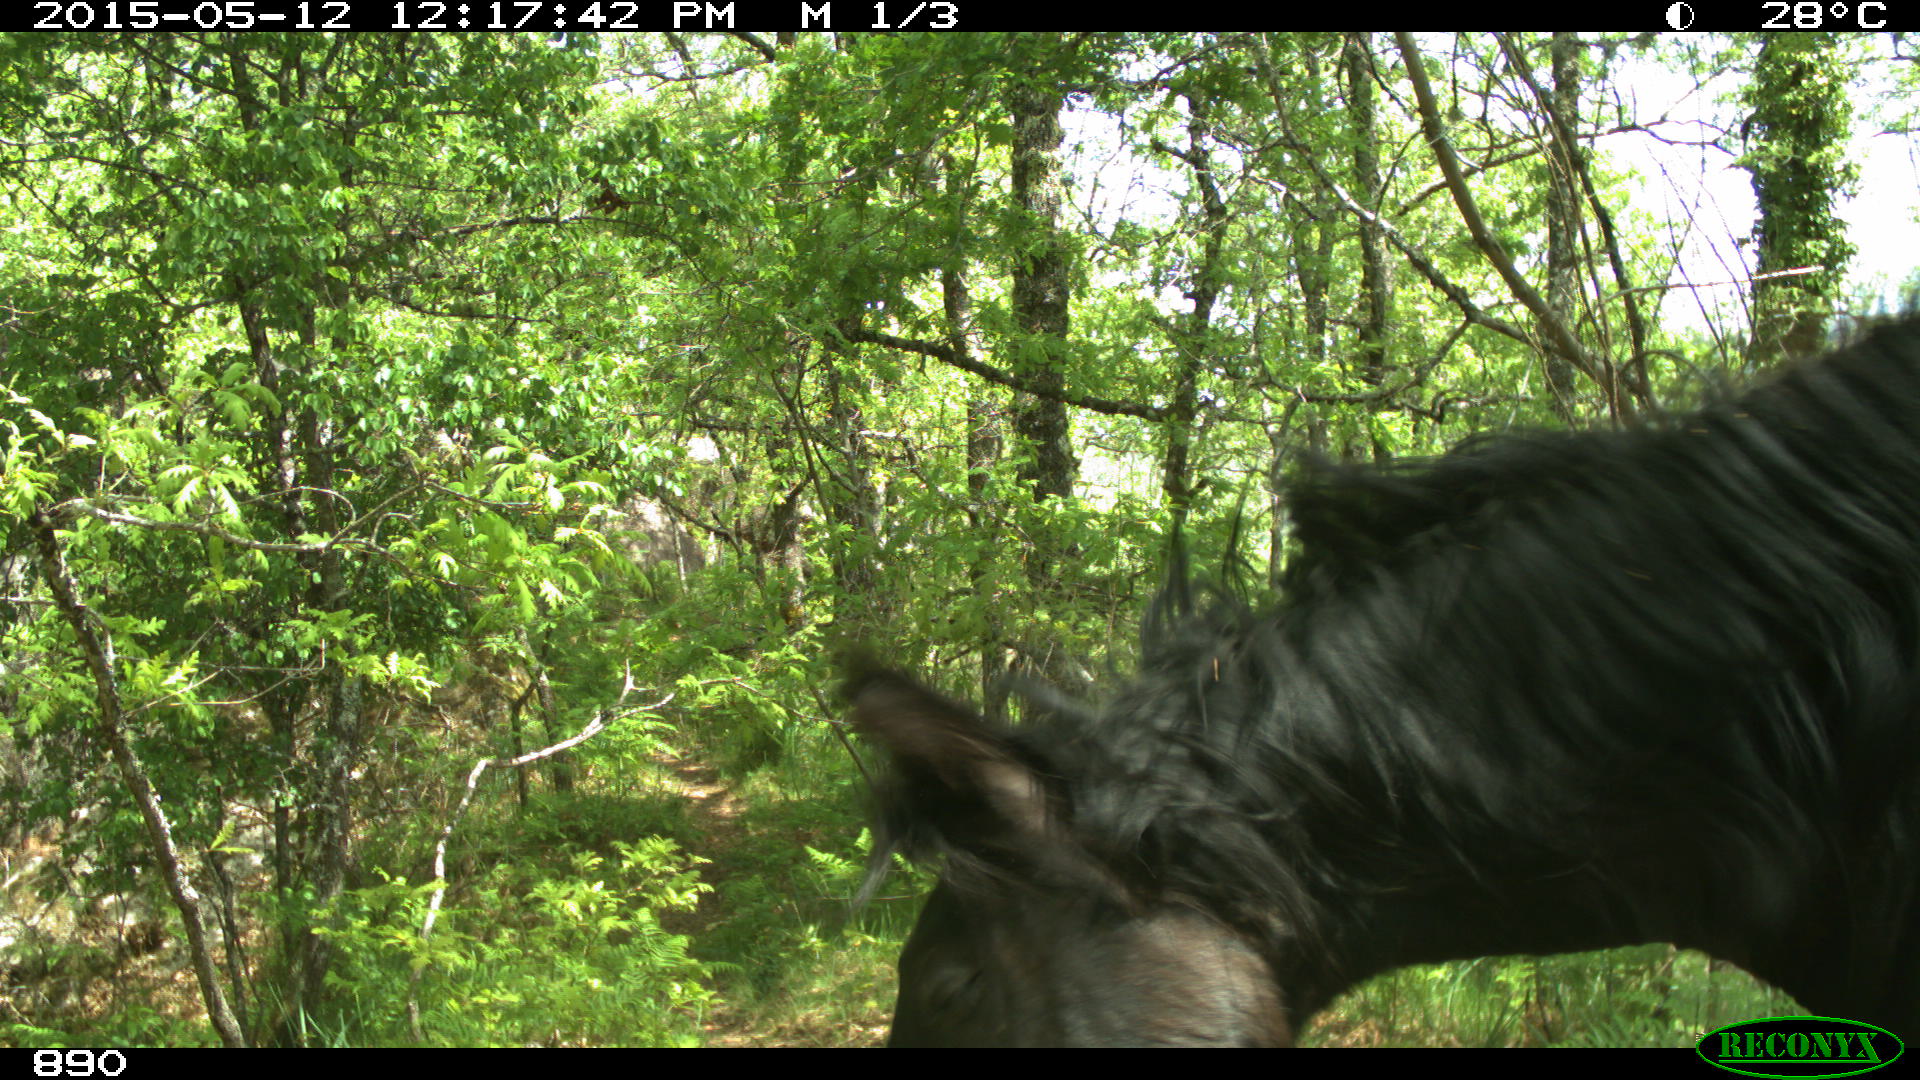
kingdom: Animalia
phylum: Chordata
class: Mammalia
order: Perissodactyla
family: Equidae
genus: Equus
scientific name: Equus caballus
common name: Horse
